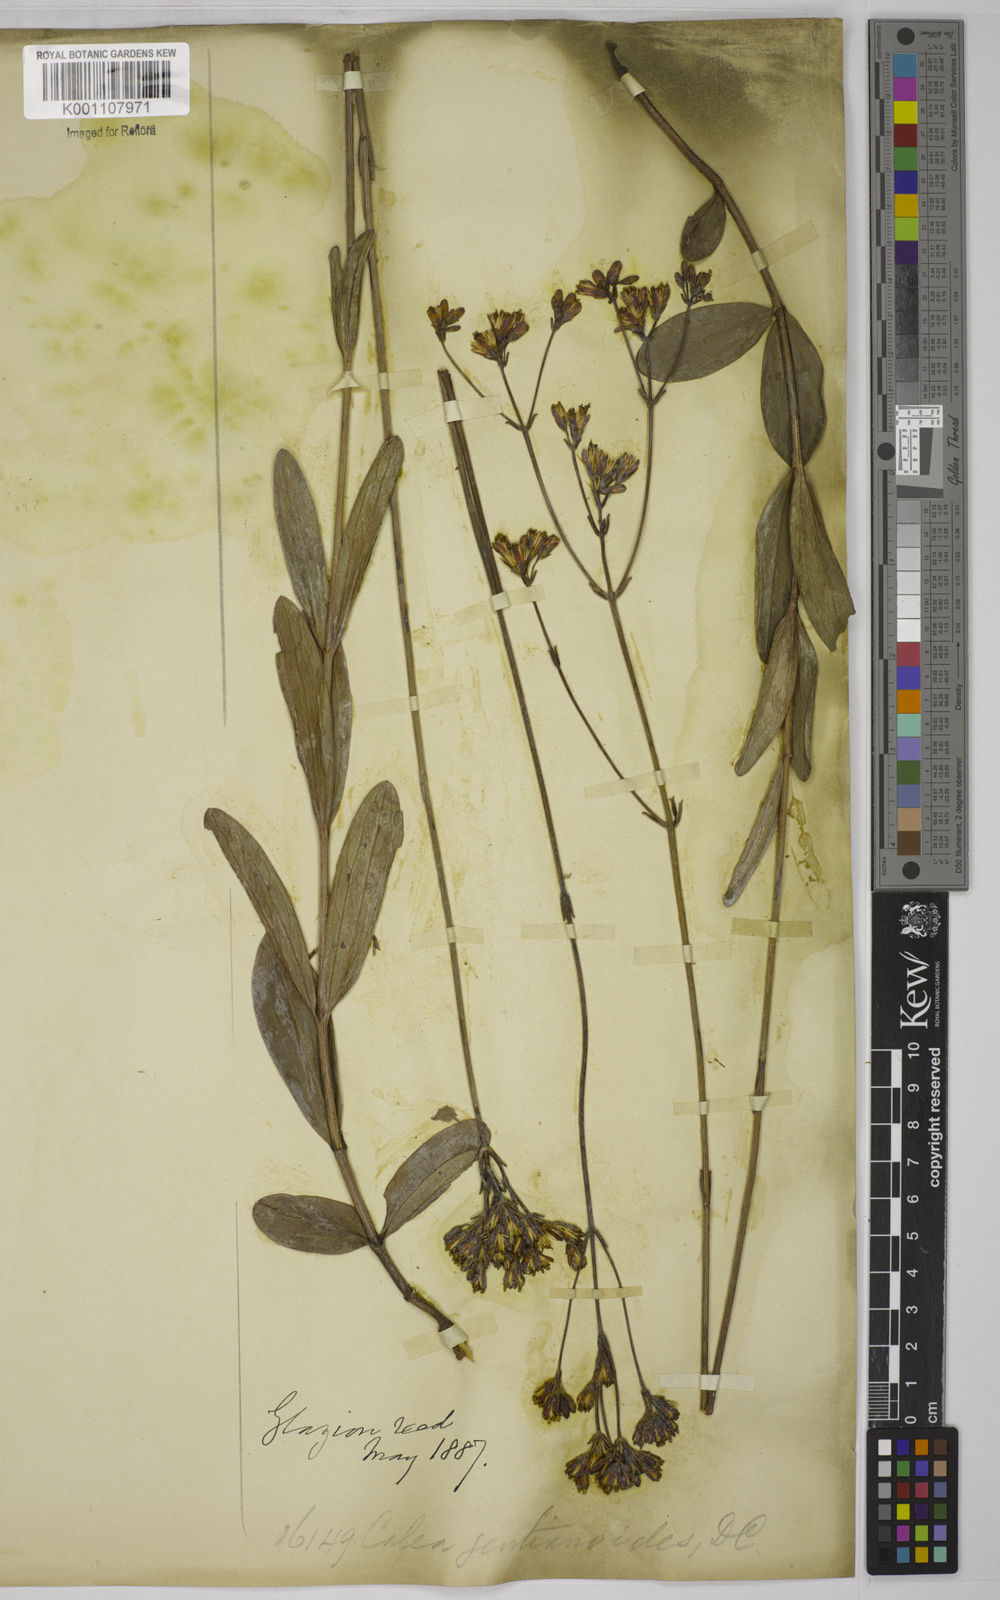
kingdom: Plantae
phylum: Tracheophyta
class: Magnoliopsida
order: Asterales
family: Asteraceae
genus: Calea
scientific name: Calea gentianoides
